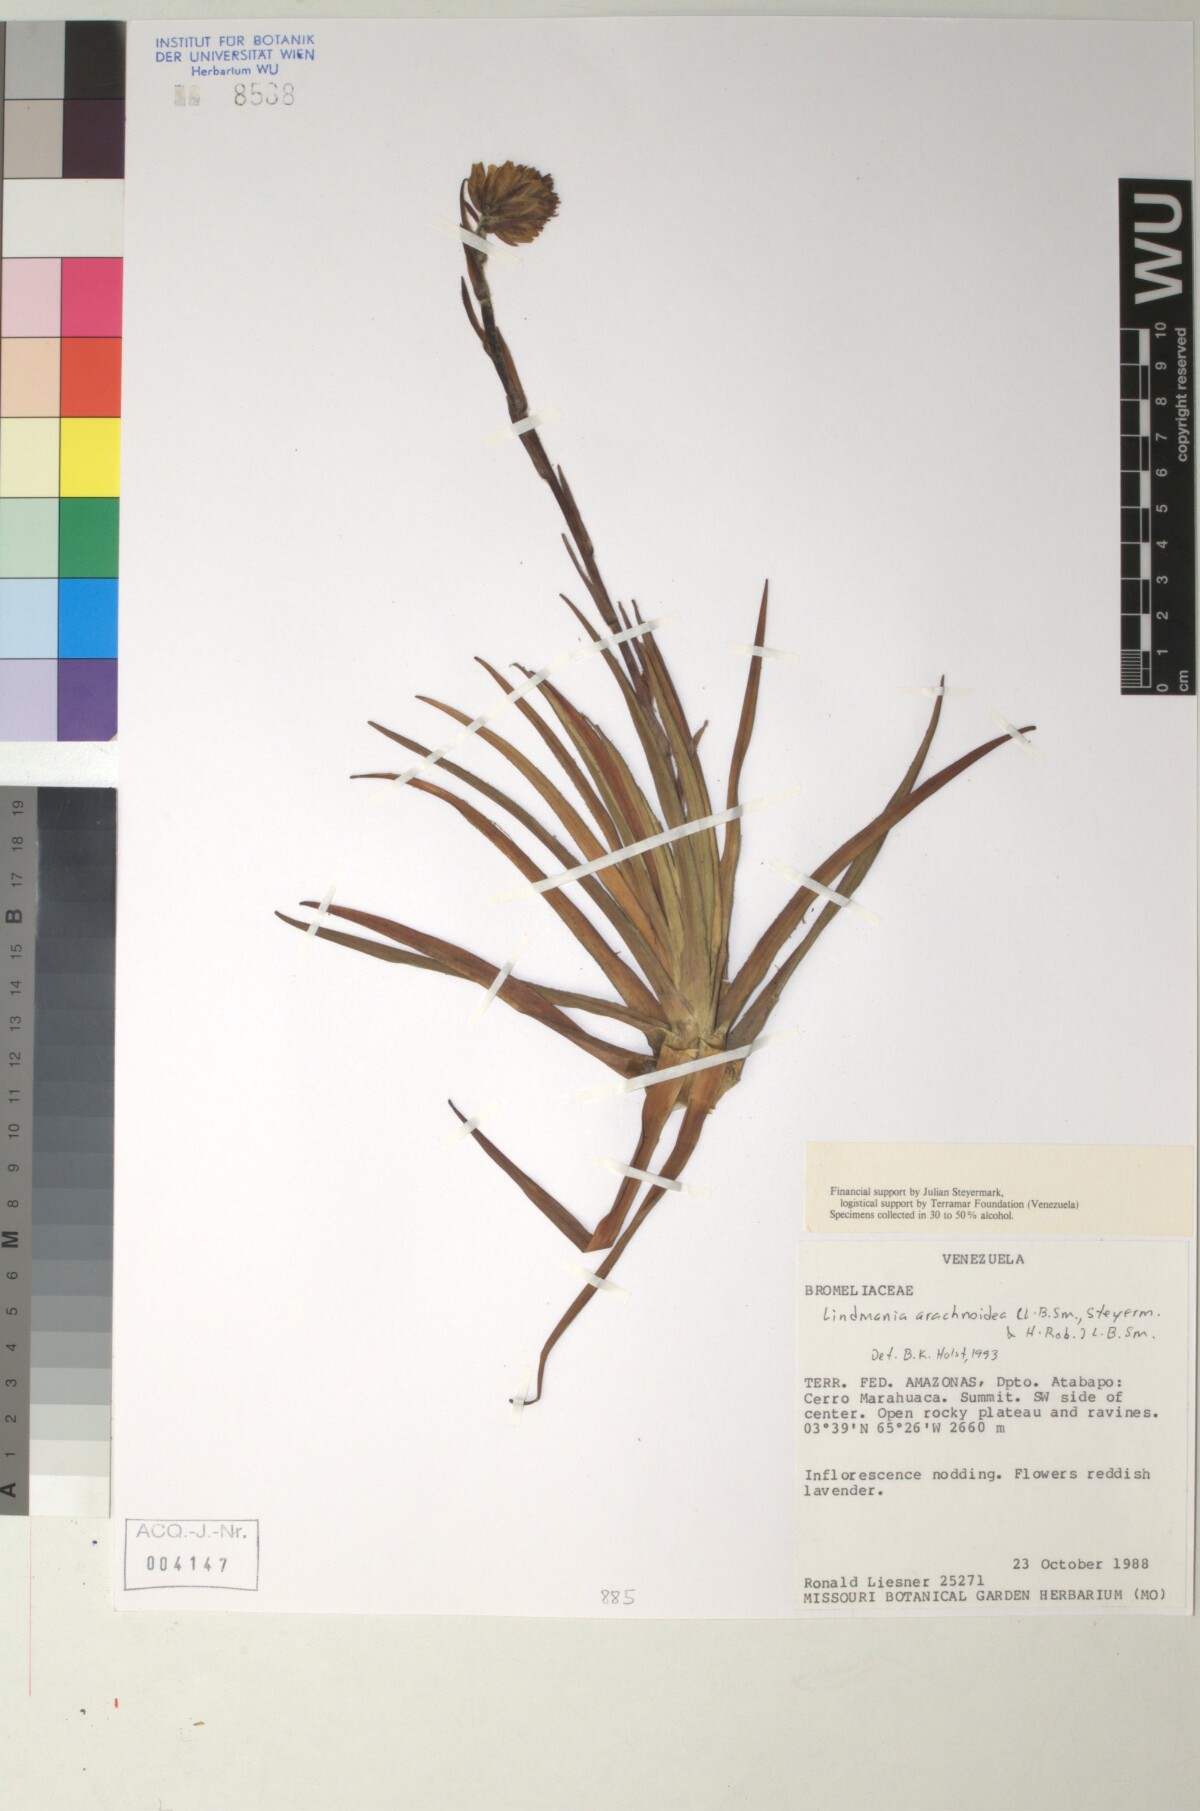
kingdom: Plantae
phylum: Tracheophyta
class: Liliopsida
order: Poales
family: Bromeliaceae
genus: Lindmania
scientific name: Lindmania
